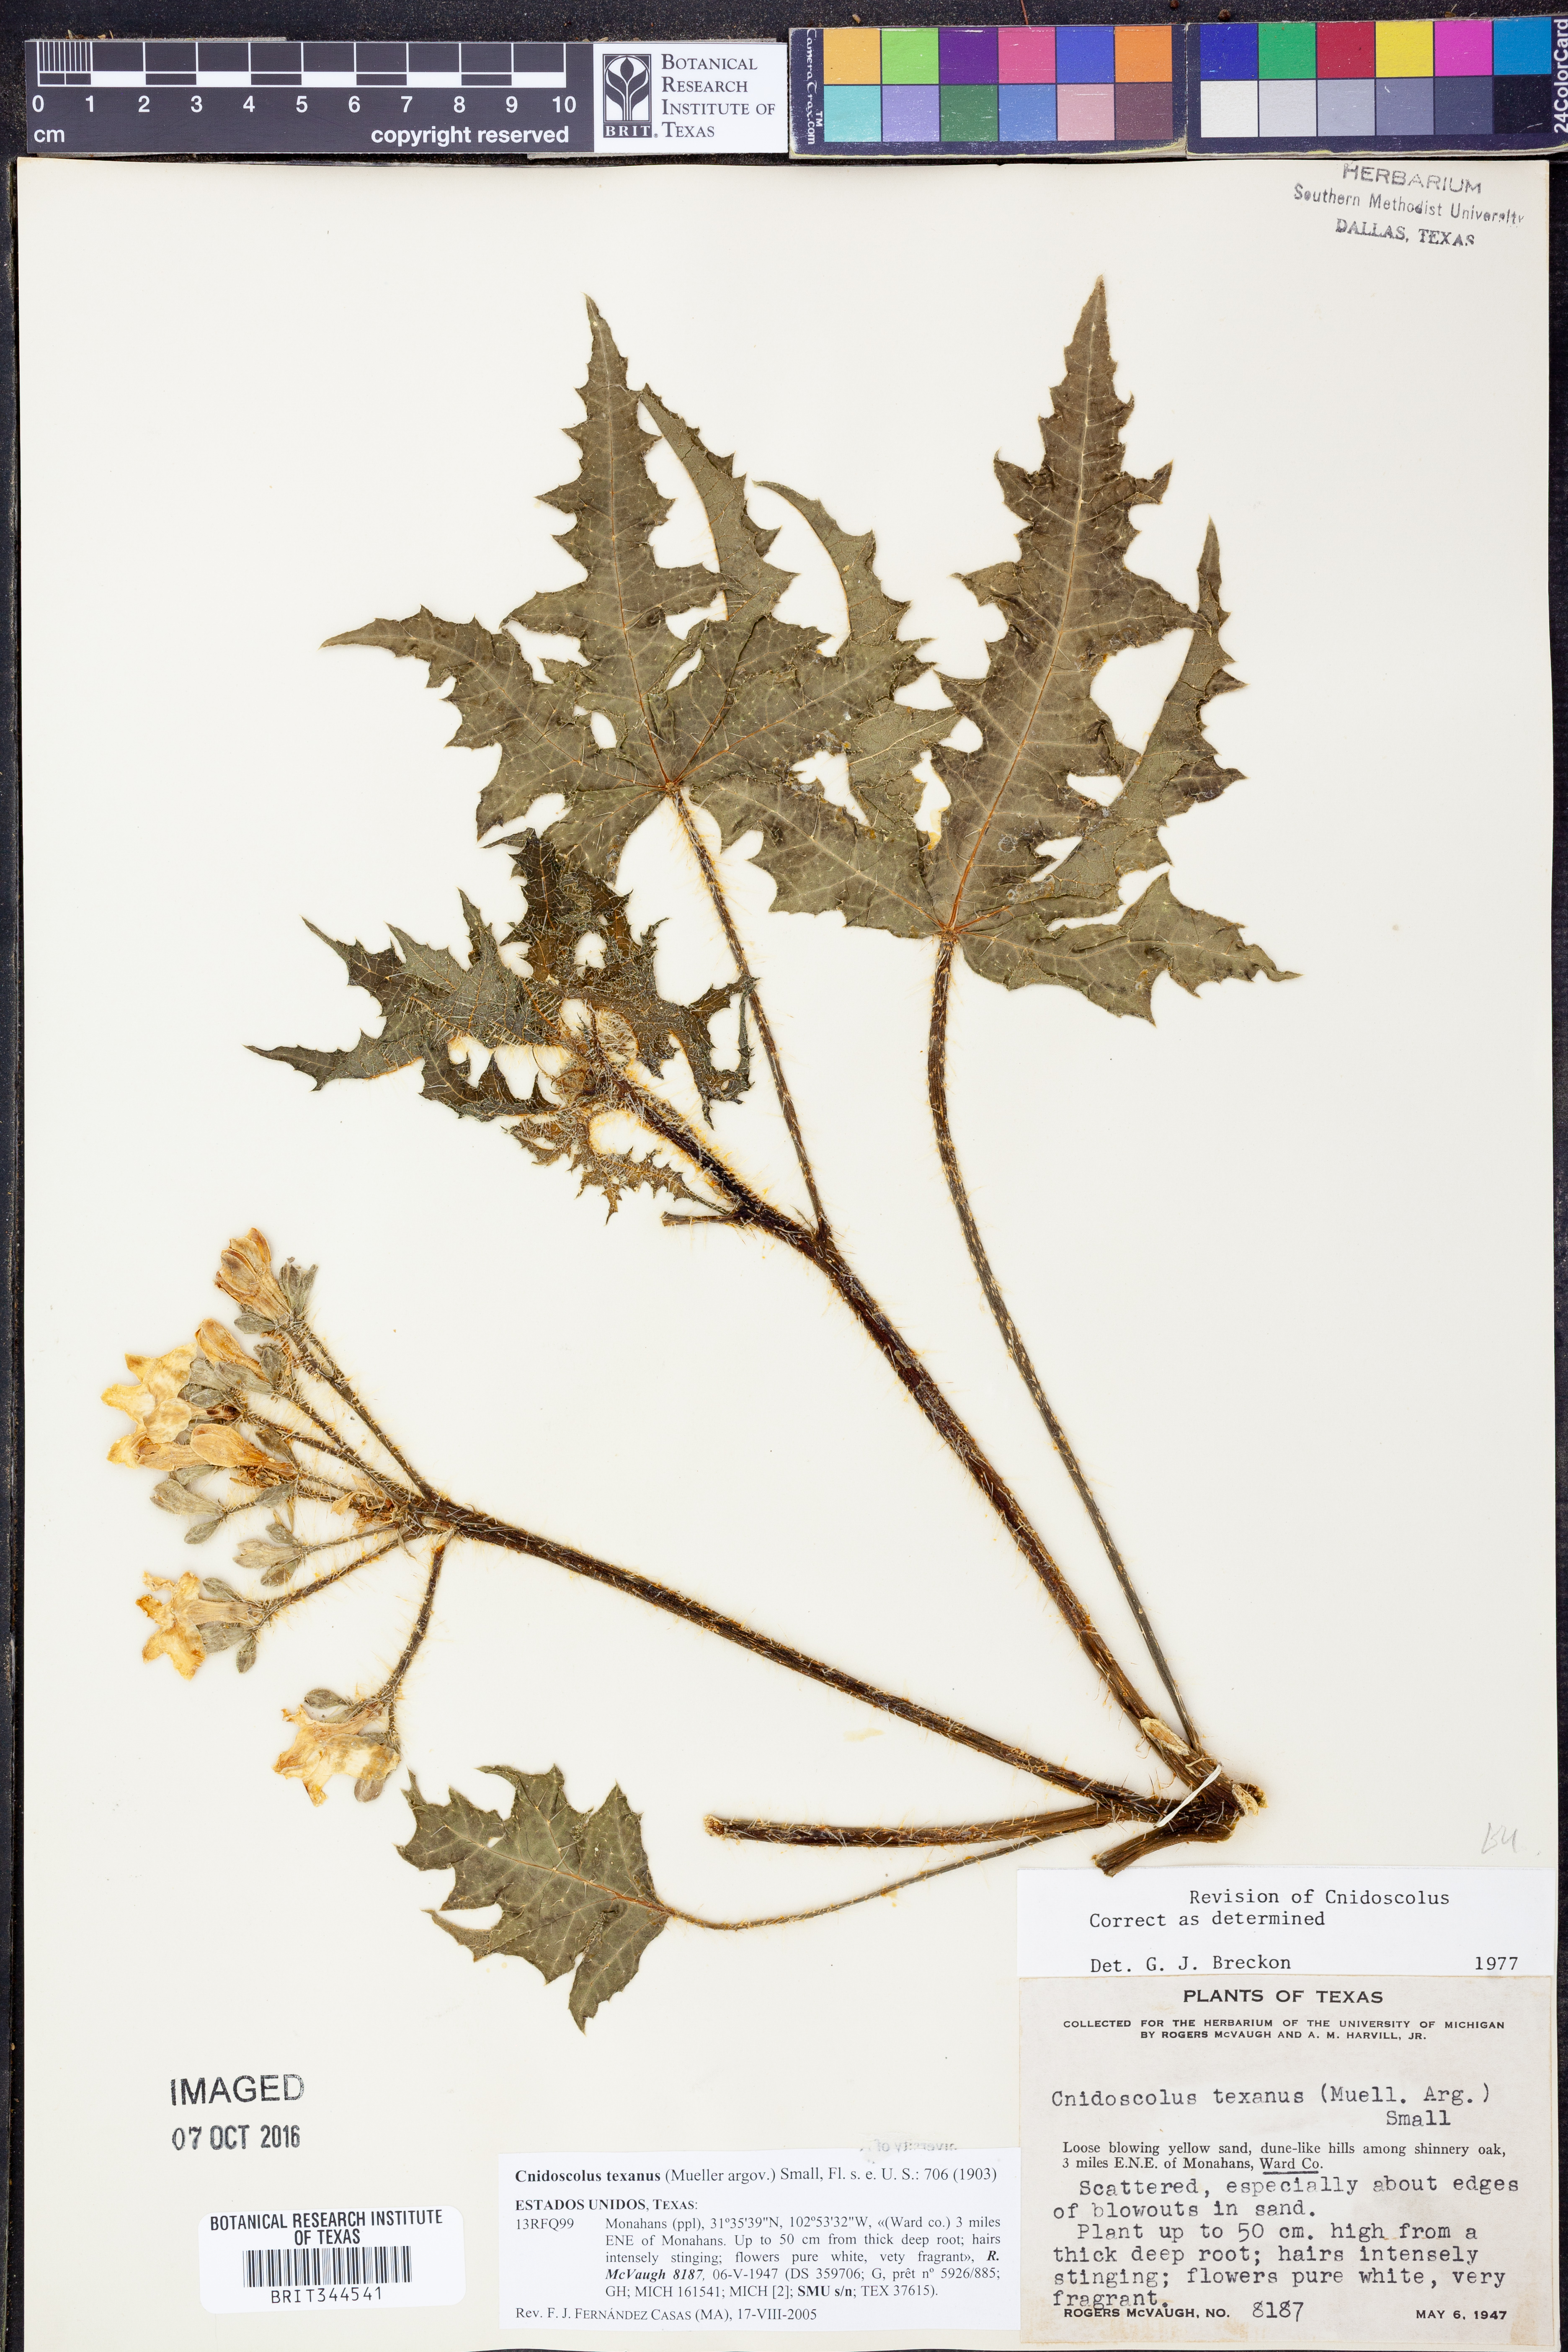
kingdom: Plantae
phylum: Tracheophyta
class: Magnoliopsida
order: Malpighiales
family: Euphorbiaceae
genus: Cnidoscolus
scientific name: Cnidoscolus texanus
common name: Texas bull-nettle
